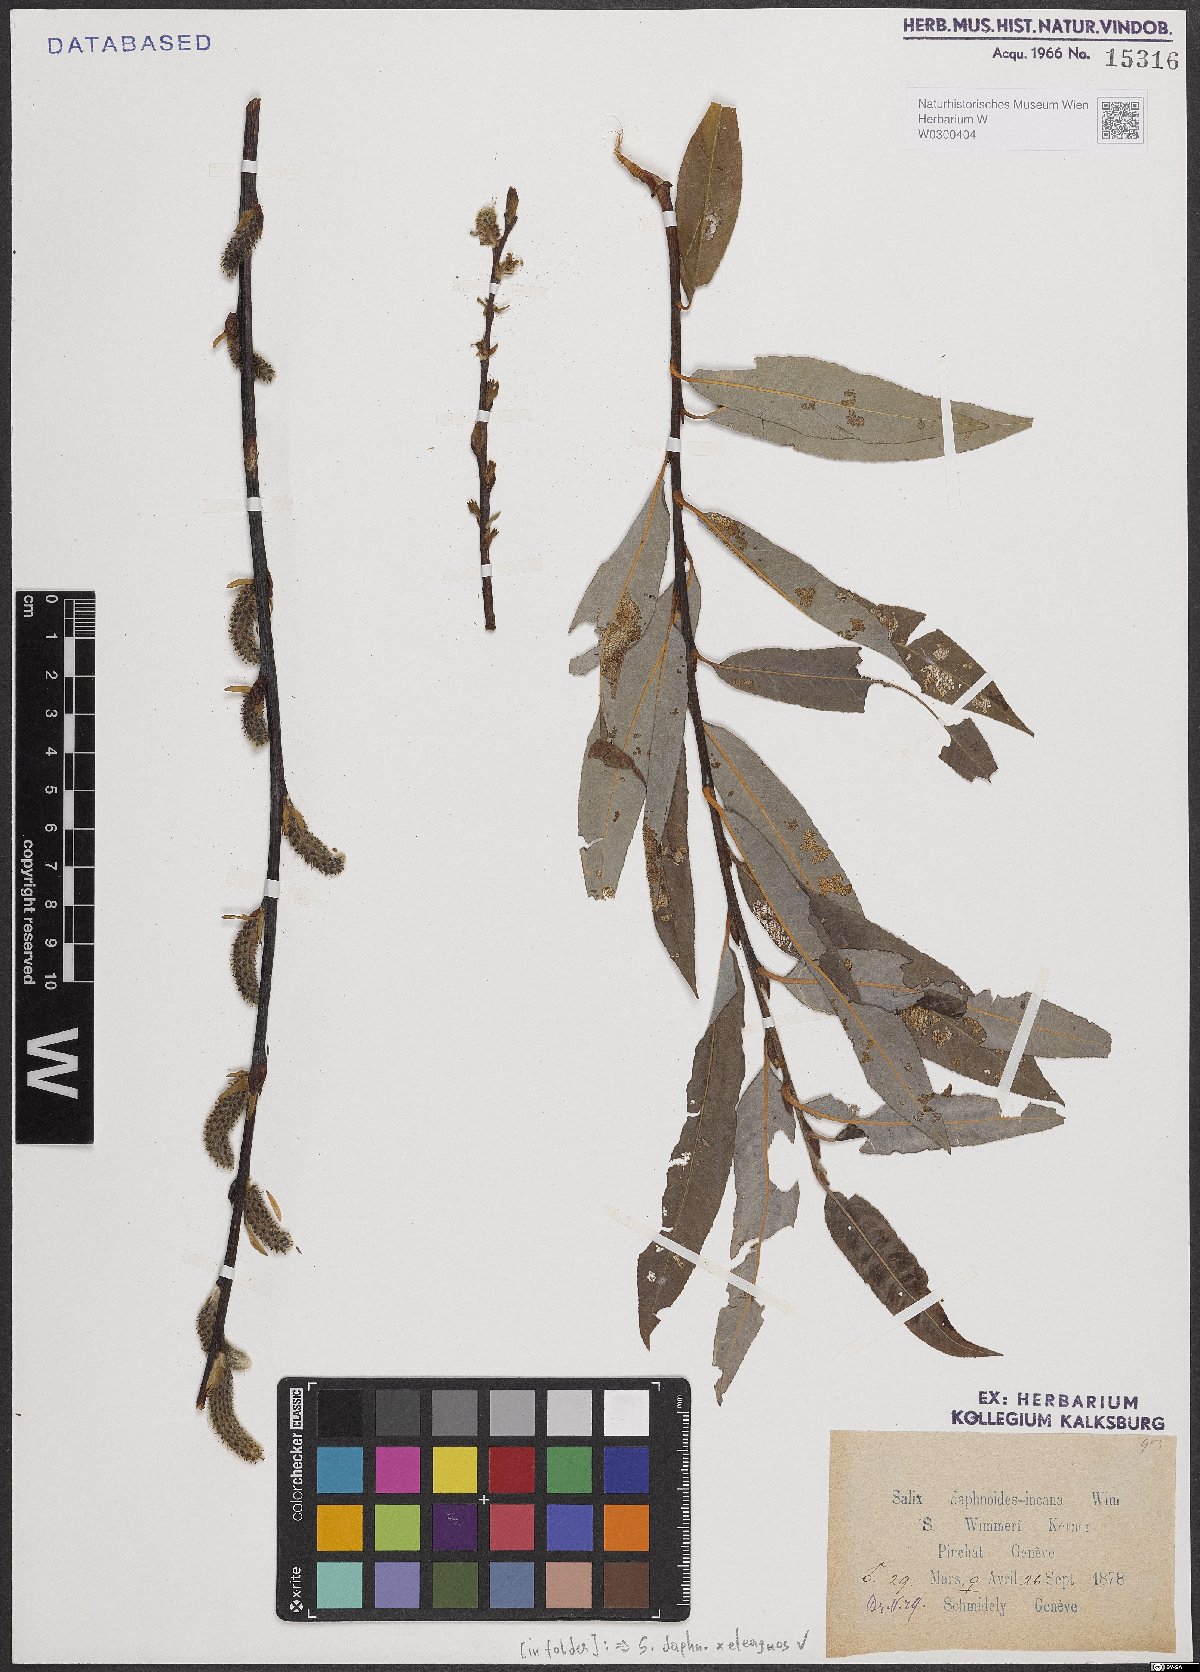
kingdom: Plantae
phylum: Tracheophyta
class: Magnoliopsida
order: Malpighiales
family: Salicaceae
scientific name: Salicaceae
